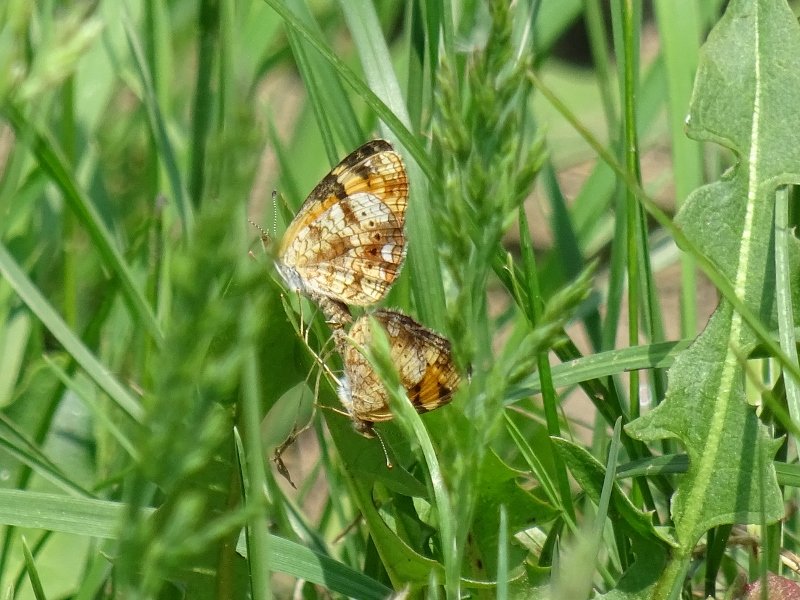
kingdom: Animalia
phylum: Arthropoda
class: Insecta
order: Lepidoptera
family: Nymphalidae
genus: Phyciodes
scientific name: Phyciodes tharos
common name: Pearl Crescent
